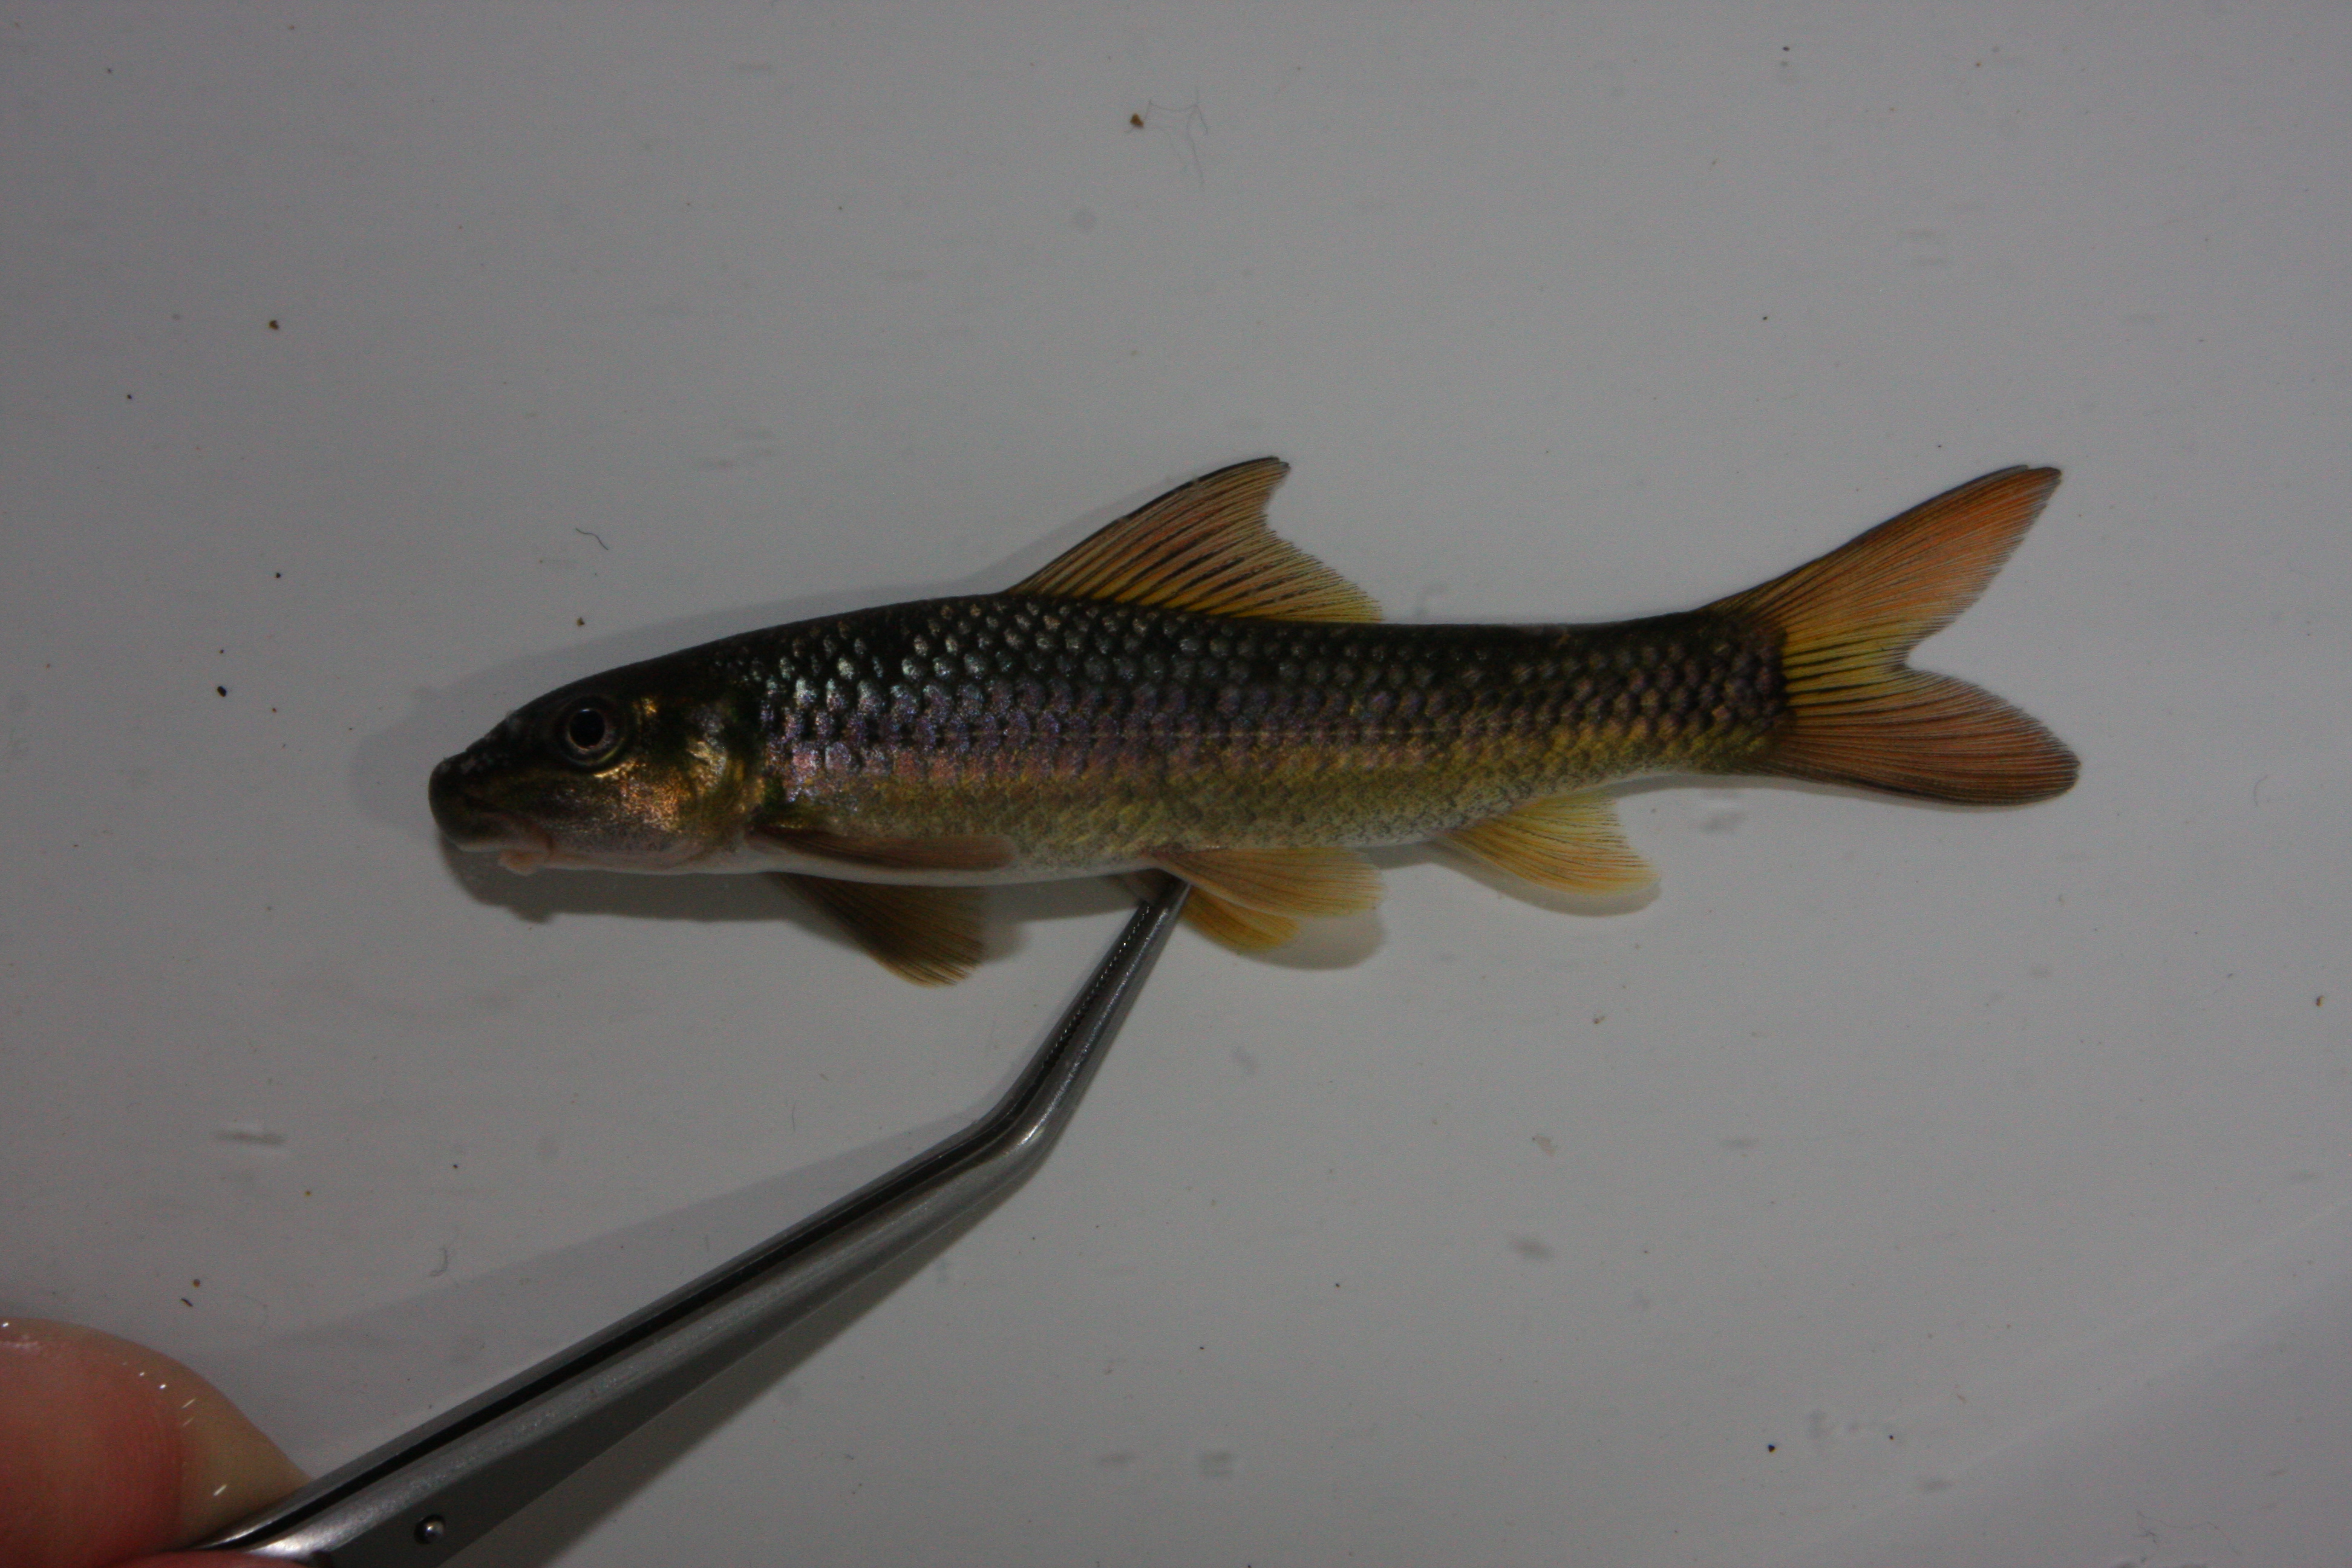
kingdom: Animalia
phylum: Chordata
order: Cypriniformes
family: Cyprinidae
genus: Labeo
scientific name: Labeo cylindricus
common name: Redeye labeo
